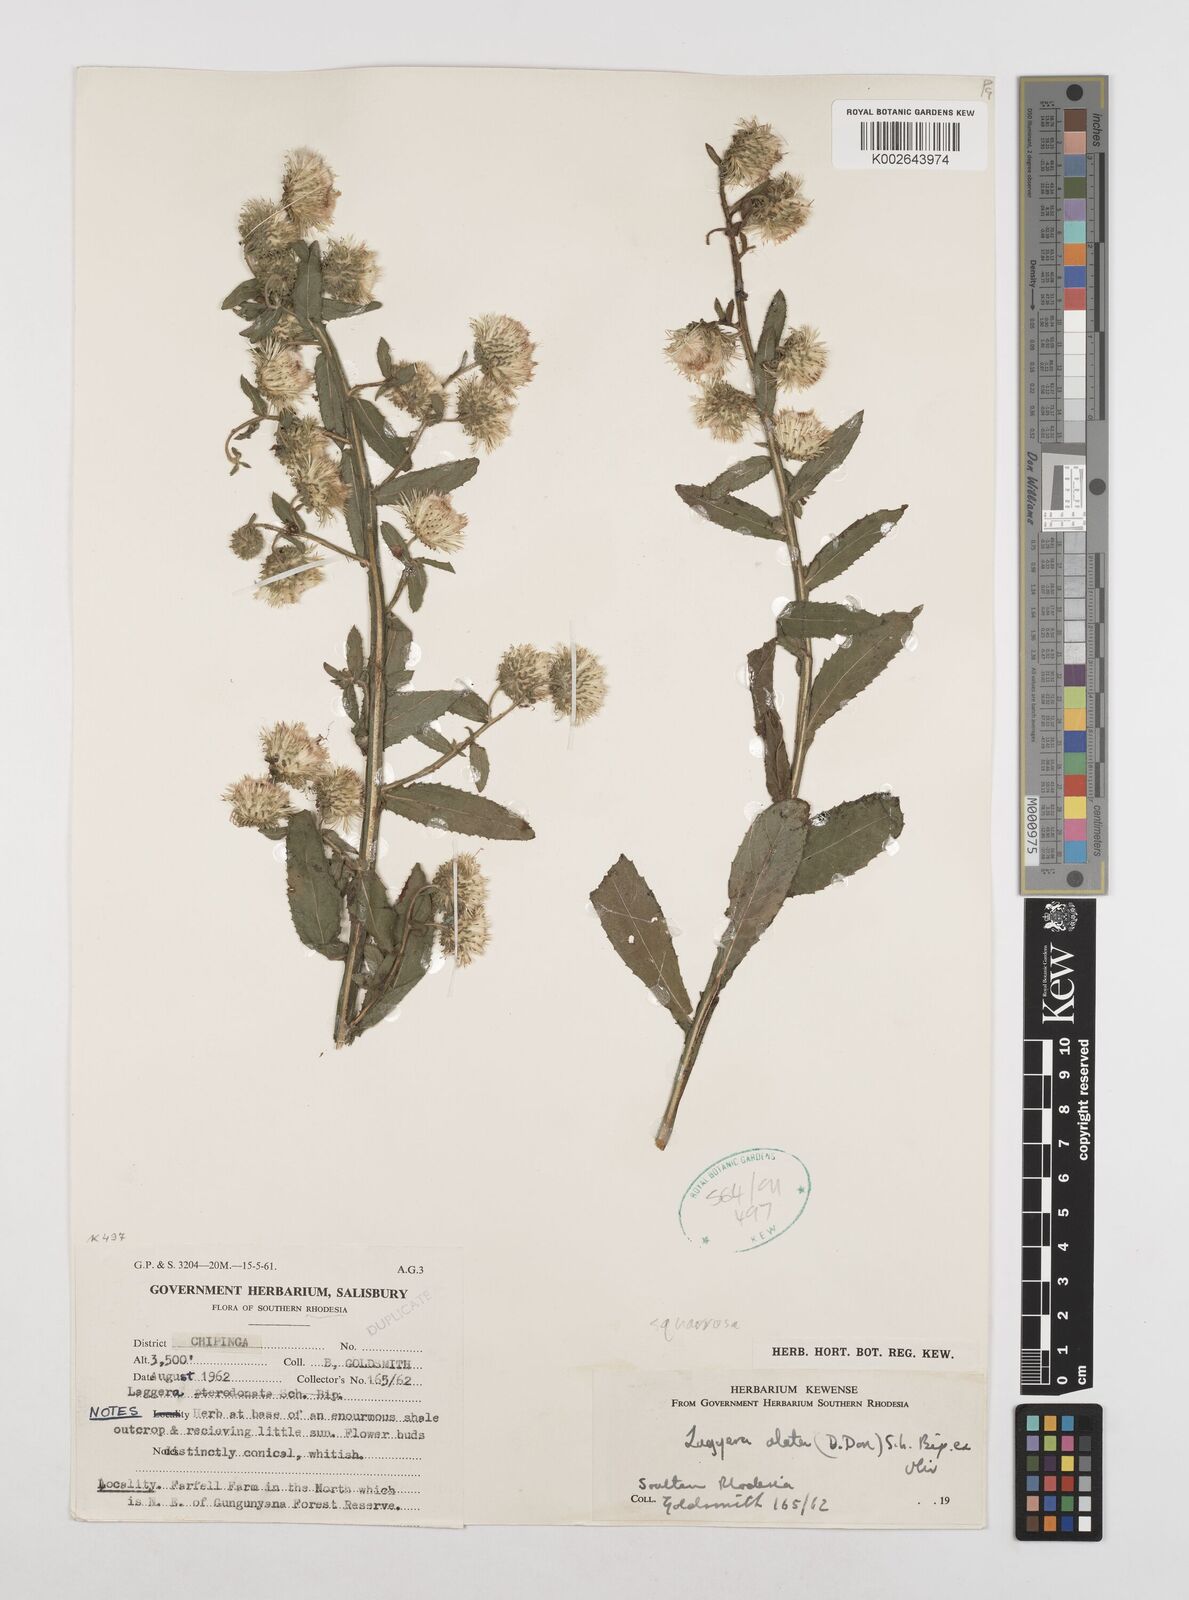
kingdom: Plantae
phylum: Tracheophyta
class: Magnoliopsida
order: Asterales
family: Asteraceae
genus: Laggera
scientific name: Laggera alata
